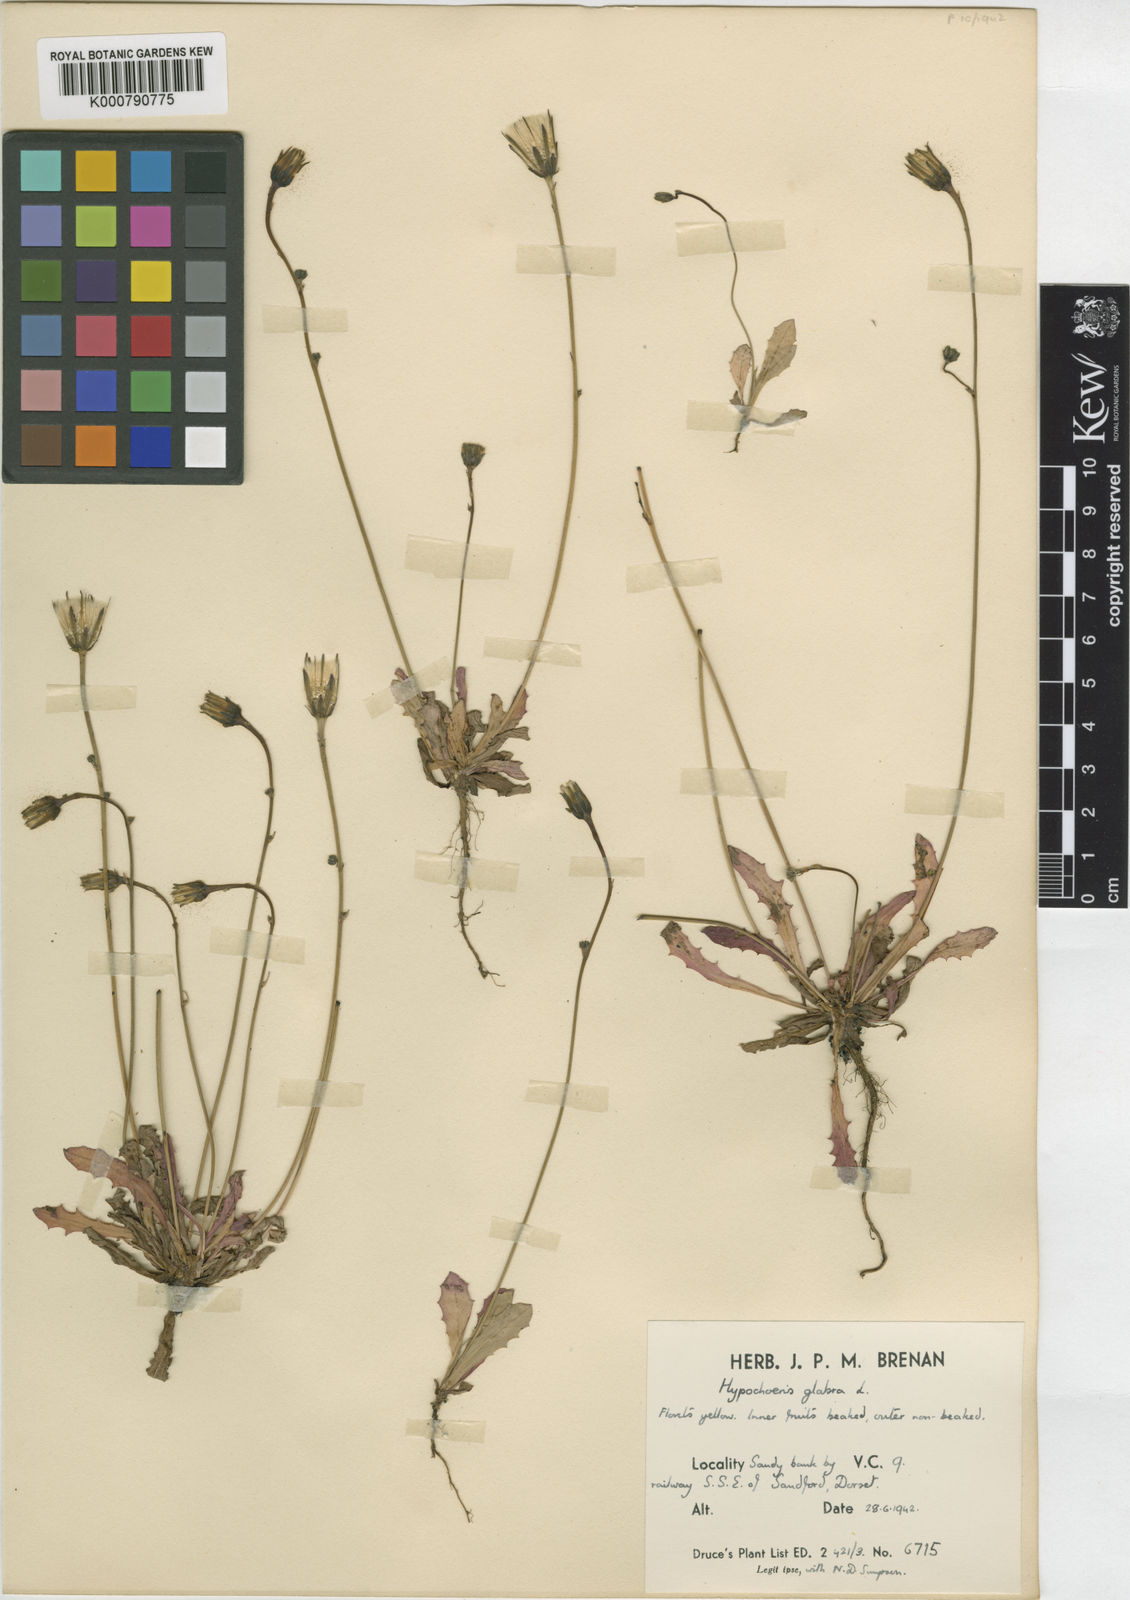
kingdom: Plantae
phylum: Tracheophyta
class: Magnoliopsida
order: Asterales
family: Asteraceae
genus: Hypochaeris
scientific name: Hypochaeris glabra
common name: Smooth catsear
